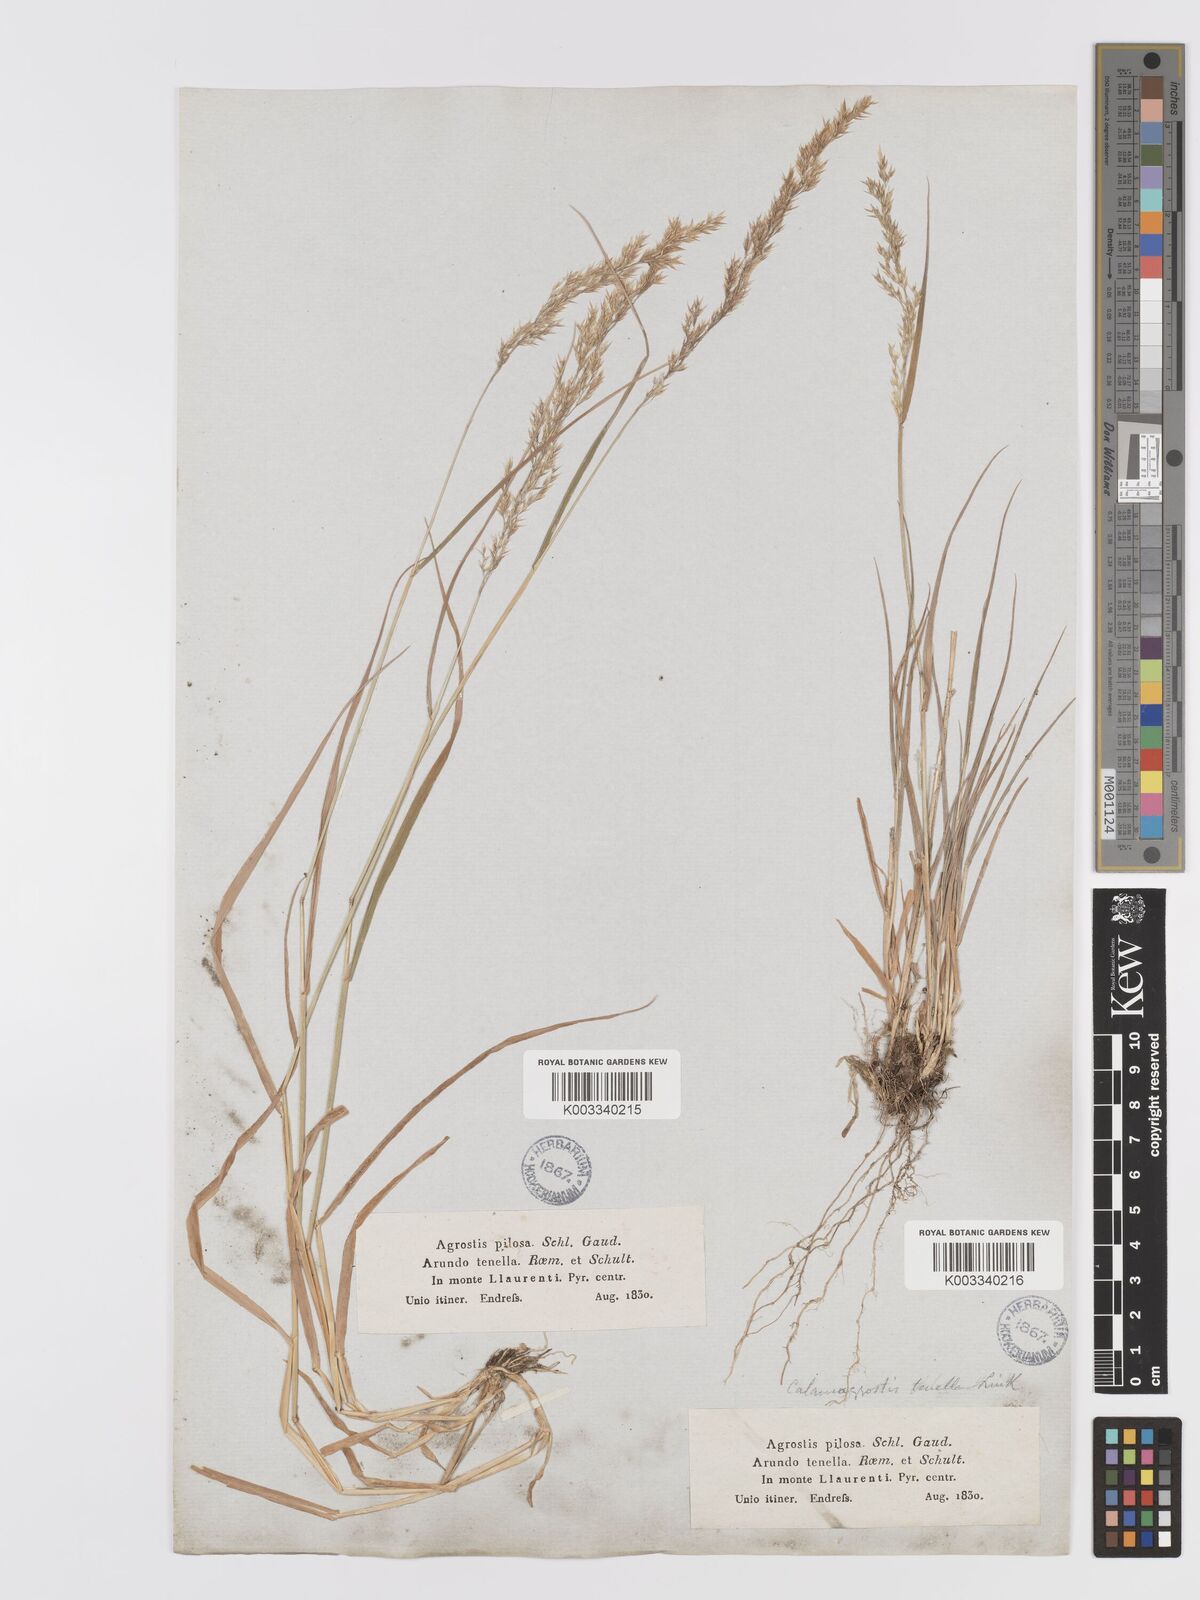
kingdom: Plantae
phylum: Tracheophyta
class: Liliopsida
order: Poales
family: Poaceae
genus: Agrostis
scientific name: Agrostis schraderiana
